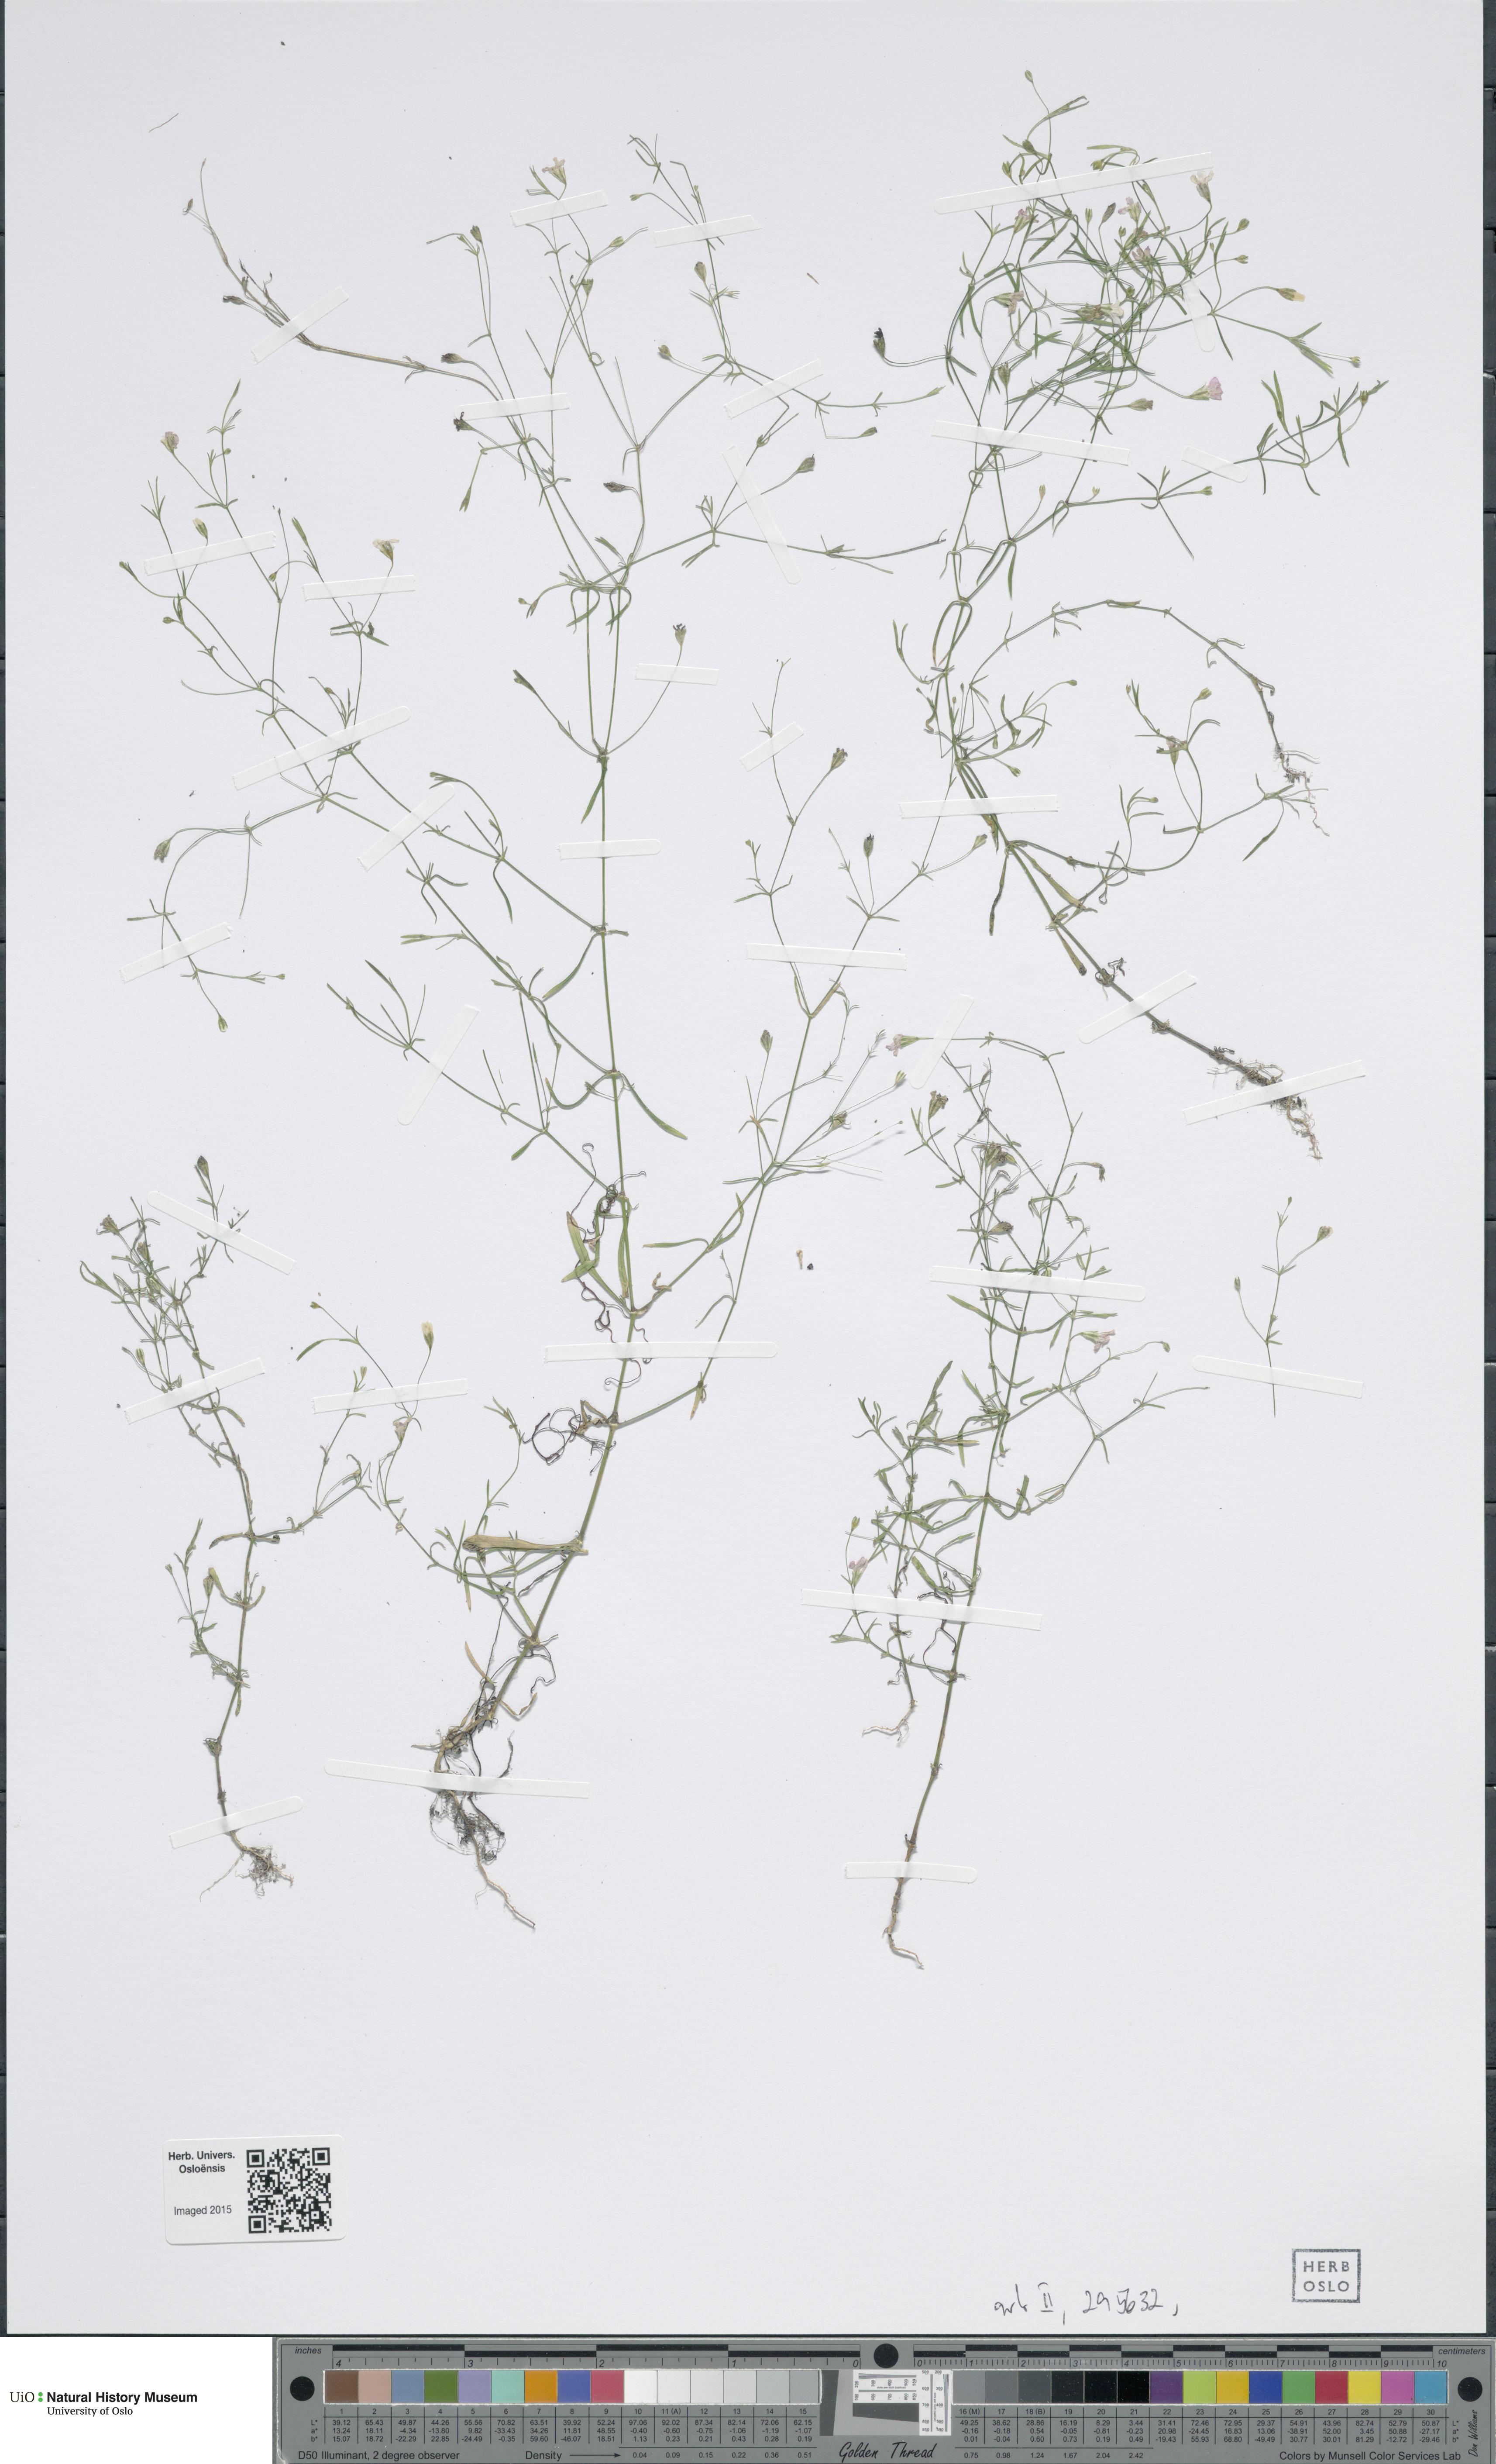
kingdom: Plantae
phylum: Tracheophyta
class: Liliopsida
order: Poales
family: Poaceae
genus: Poa
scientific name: Poa arctica
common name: Arctic bluegrass
